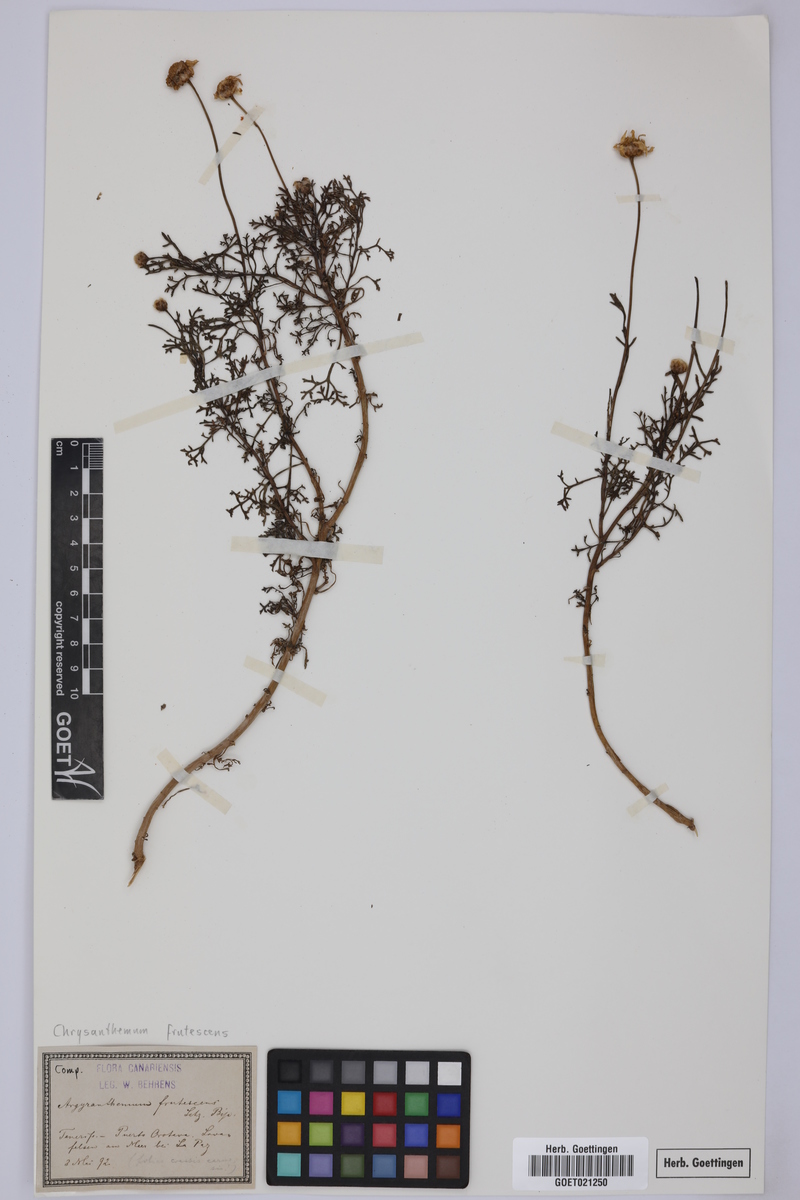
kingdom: Plantae
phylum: Tracheophyta
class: Magnoliopsida
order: Asterales
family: Asteraceae
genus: Argyranthemum
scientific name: Argyranthemum frutescens
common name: Paris daisy
